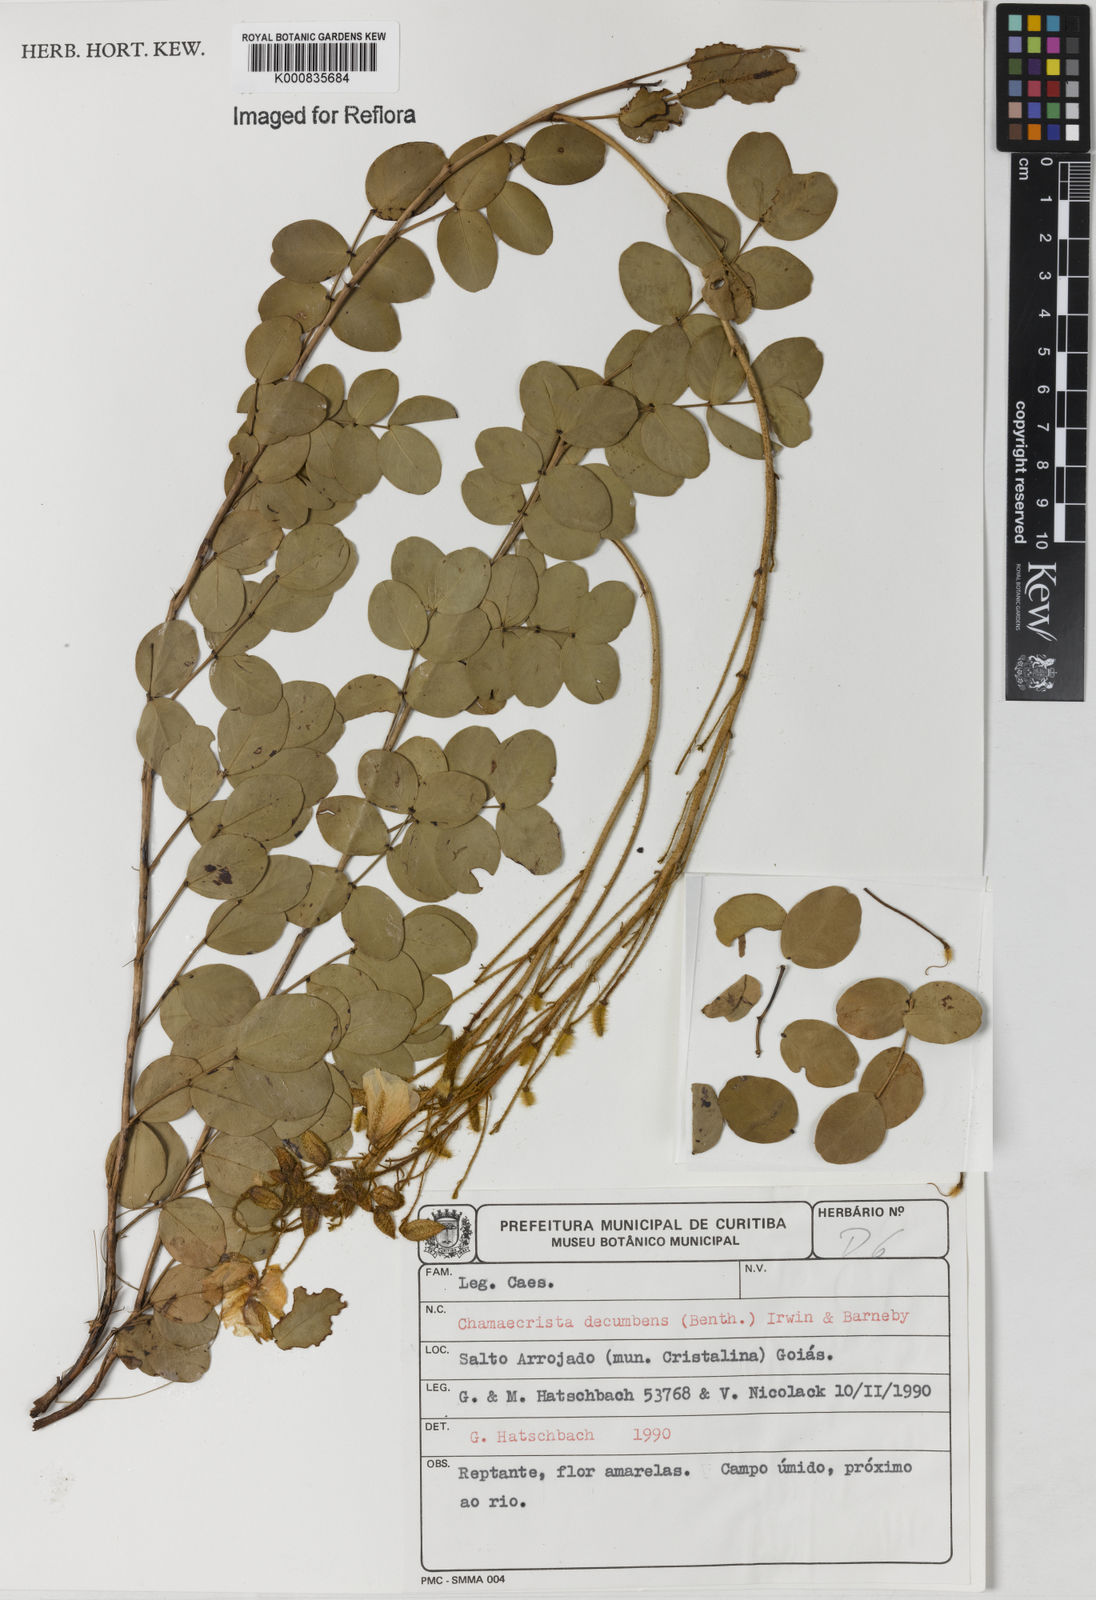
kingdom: Plantae
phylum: Tracheophyta
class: Magnoliopsida
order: Fabales
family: Fabaceae
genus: Chamaecrista
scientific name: Chamaecrista decumbens
